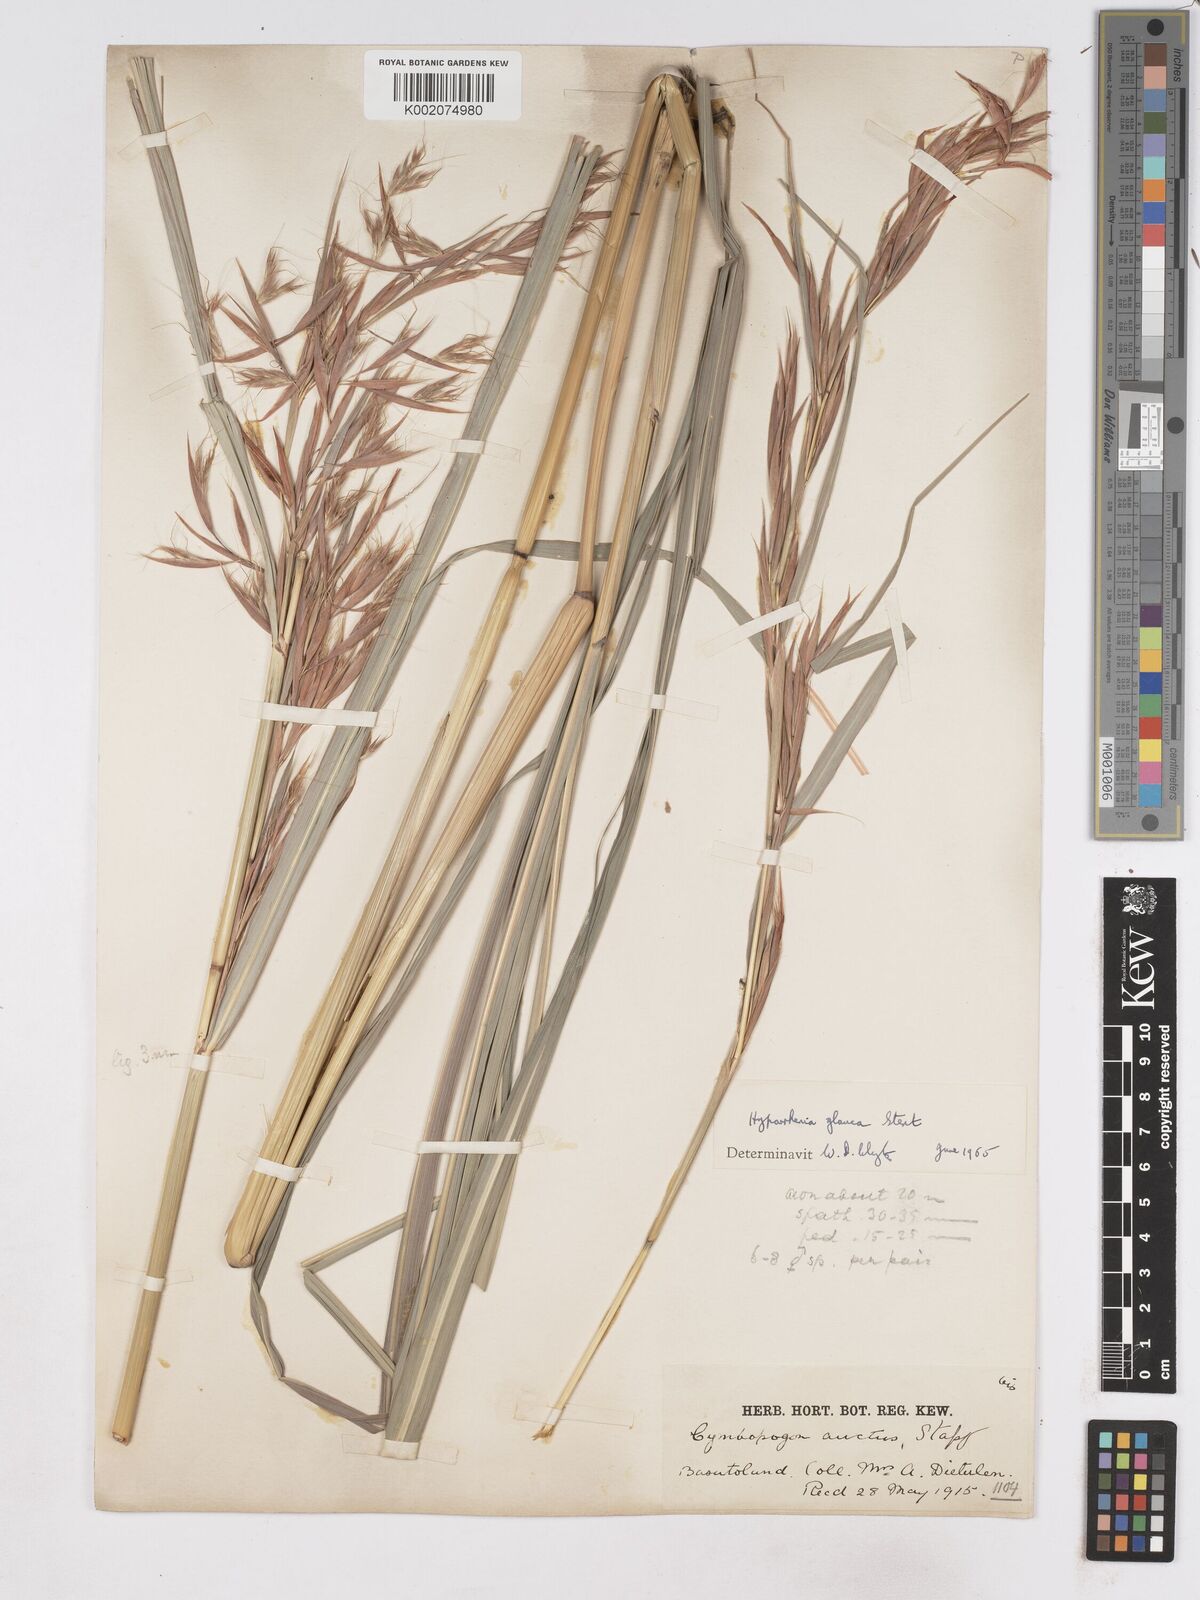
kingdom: Plantae
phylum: Tracheophyta
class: Liliopsida
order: Poales
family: Poaceae
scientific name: Poaceae
